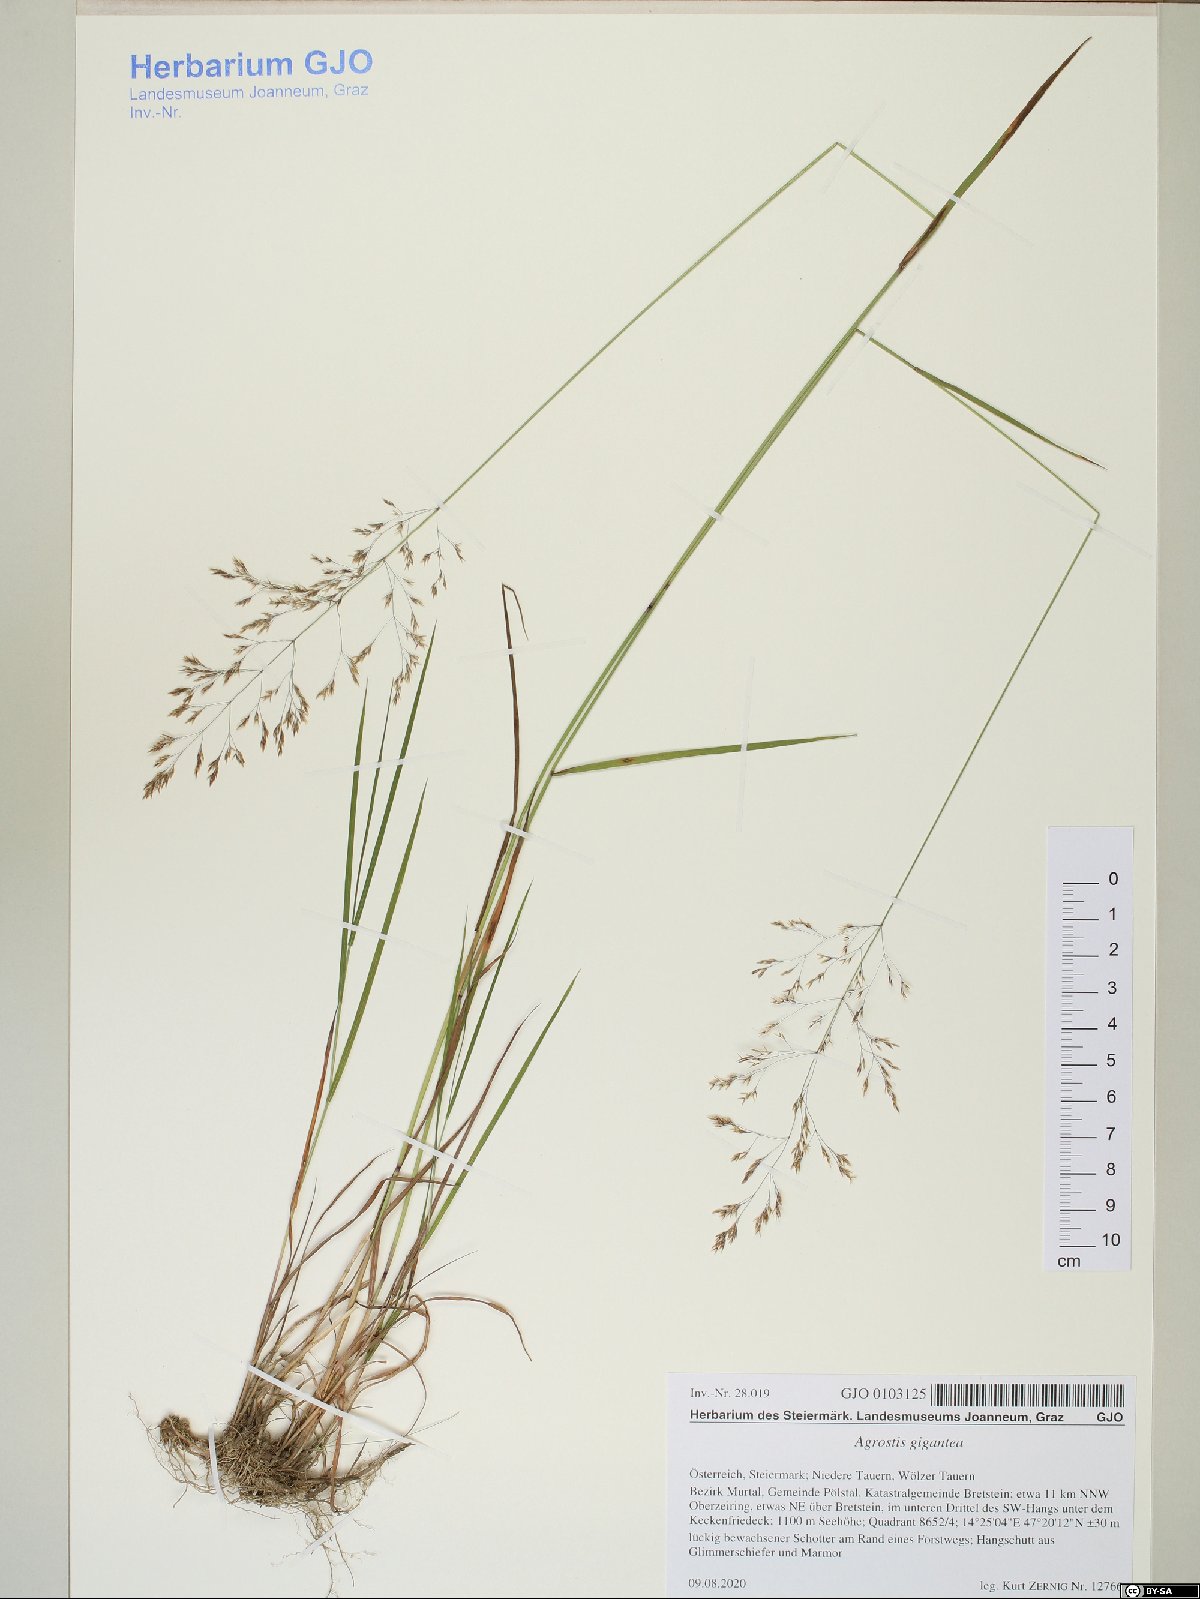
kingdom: Plantae
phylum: Tracheophyta
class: Liliopsida
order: Poales
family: Poaceae
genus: Agrostis
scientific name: Agrostis gigantea
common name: Black bent
